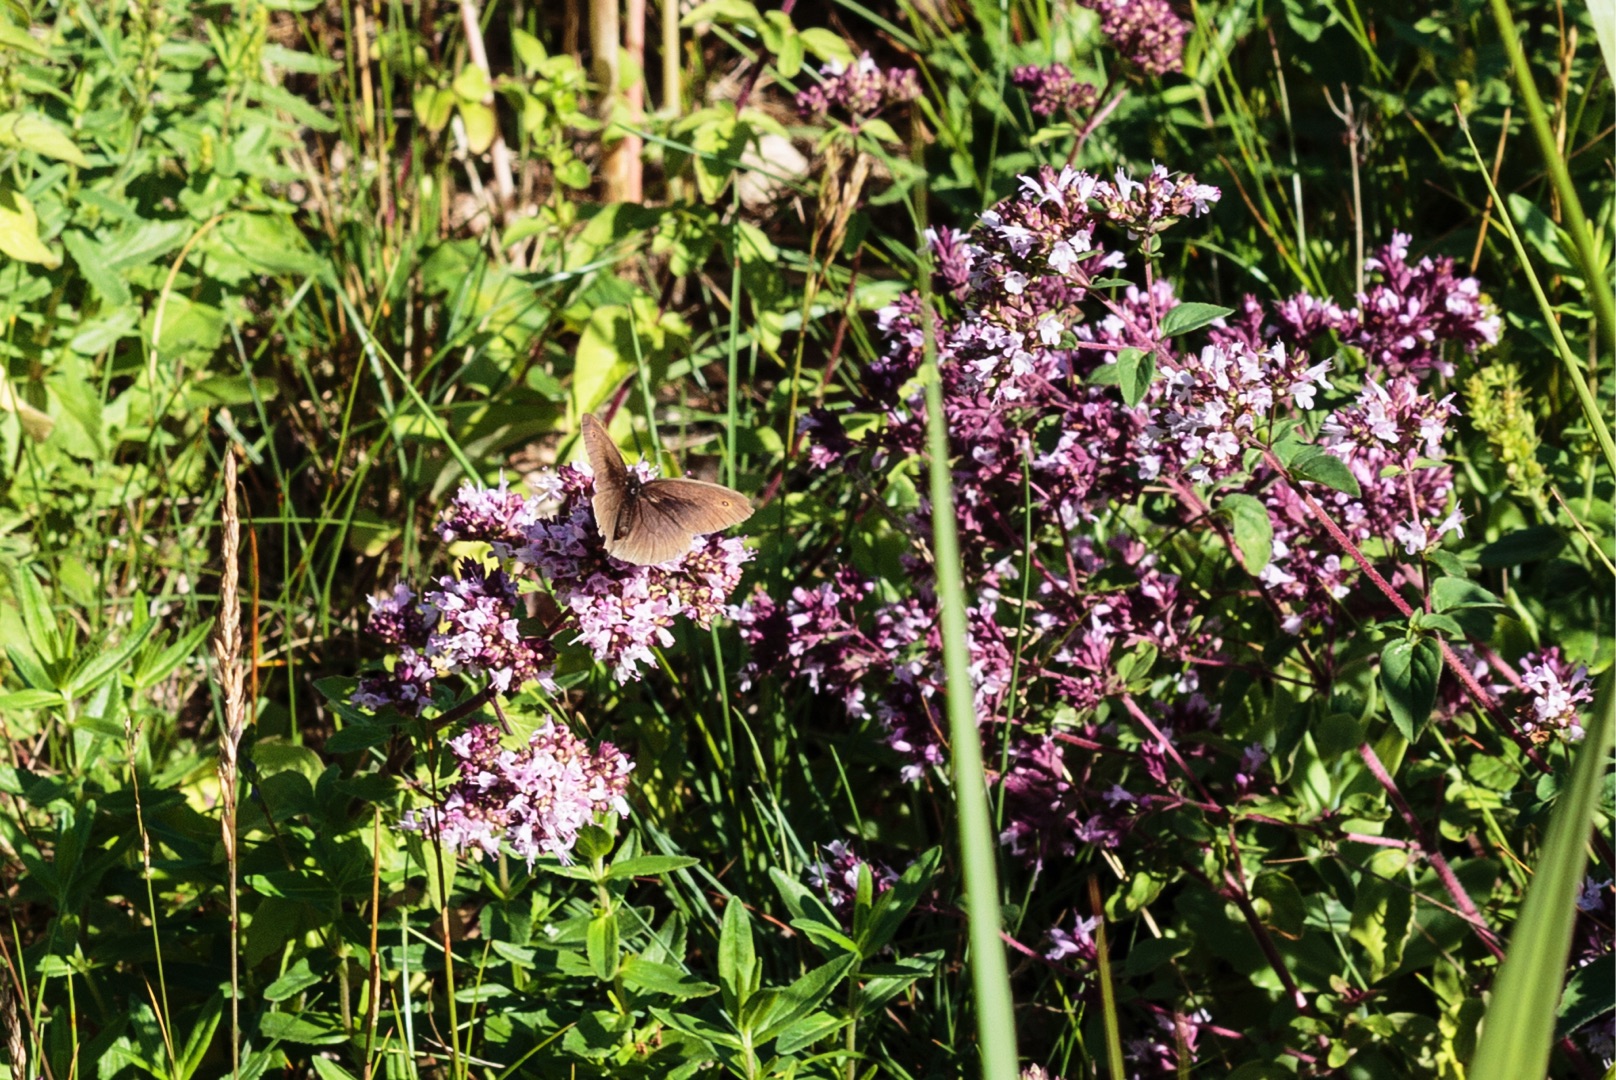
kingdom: Animalia
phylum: Arthropoda
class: Insecta
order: Lepidoptera
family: Nymphalidae
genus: Maniola
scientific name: Maniola jurtina
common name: Græsrandøje
